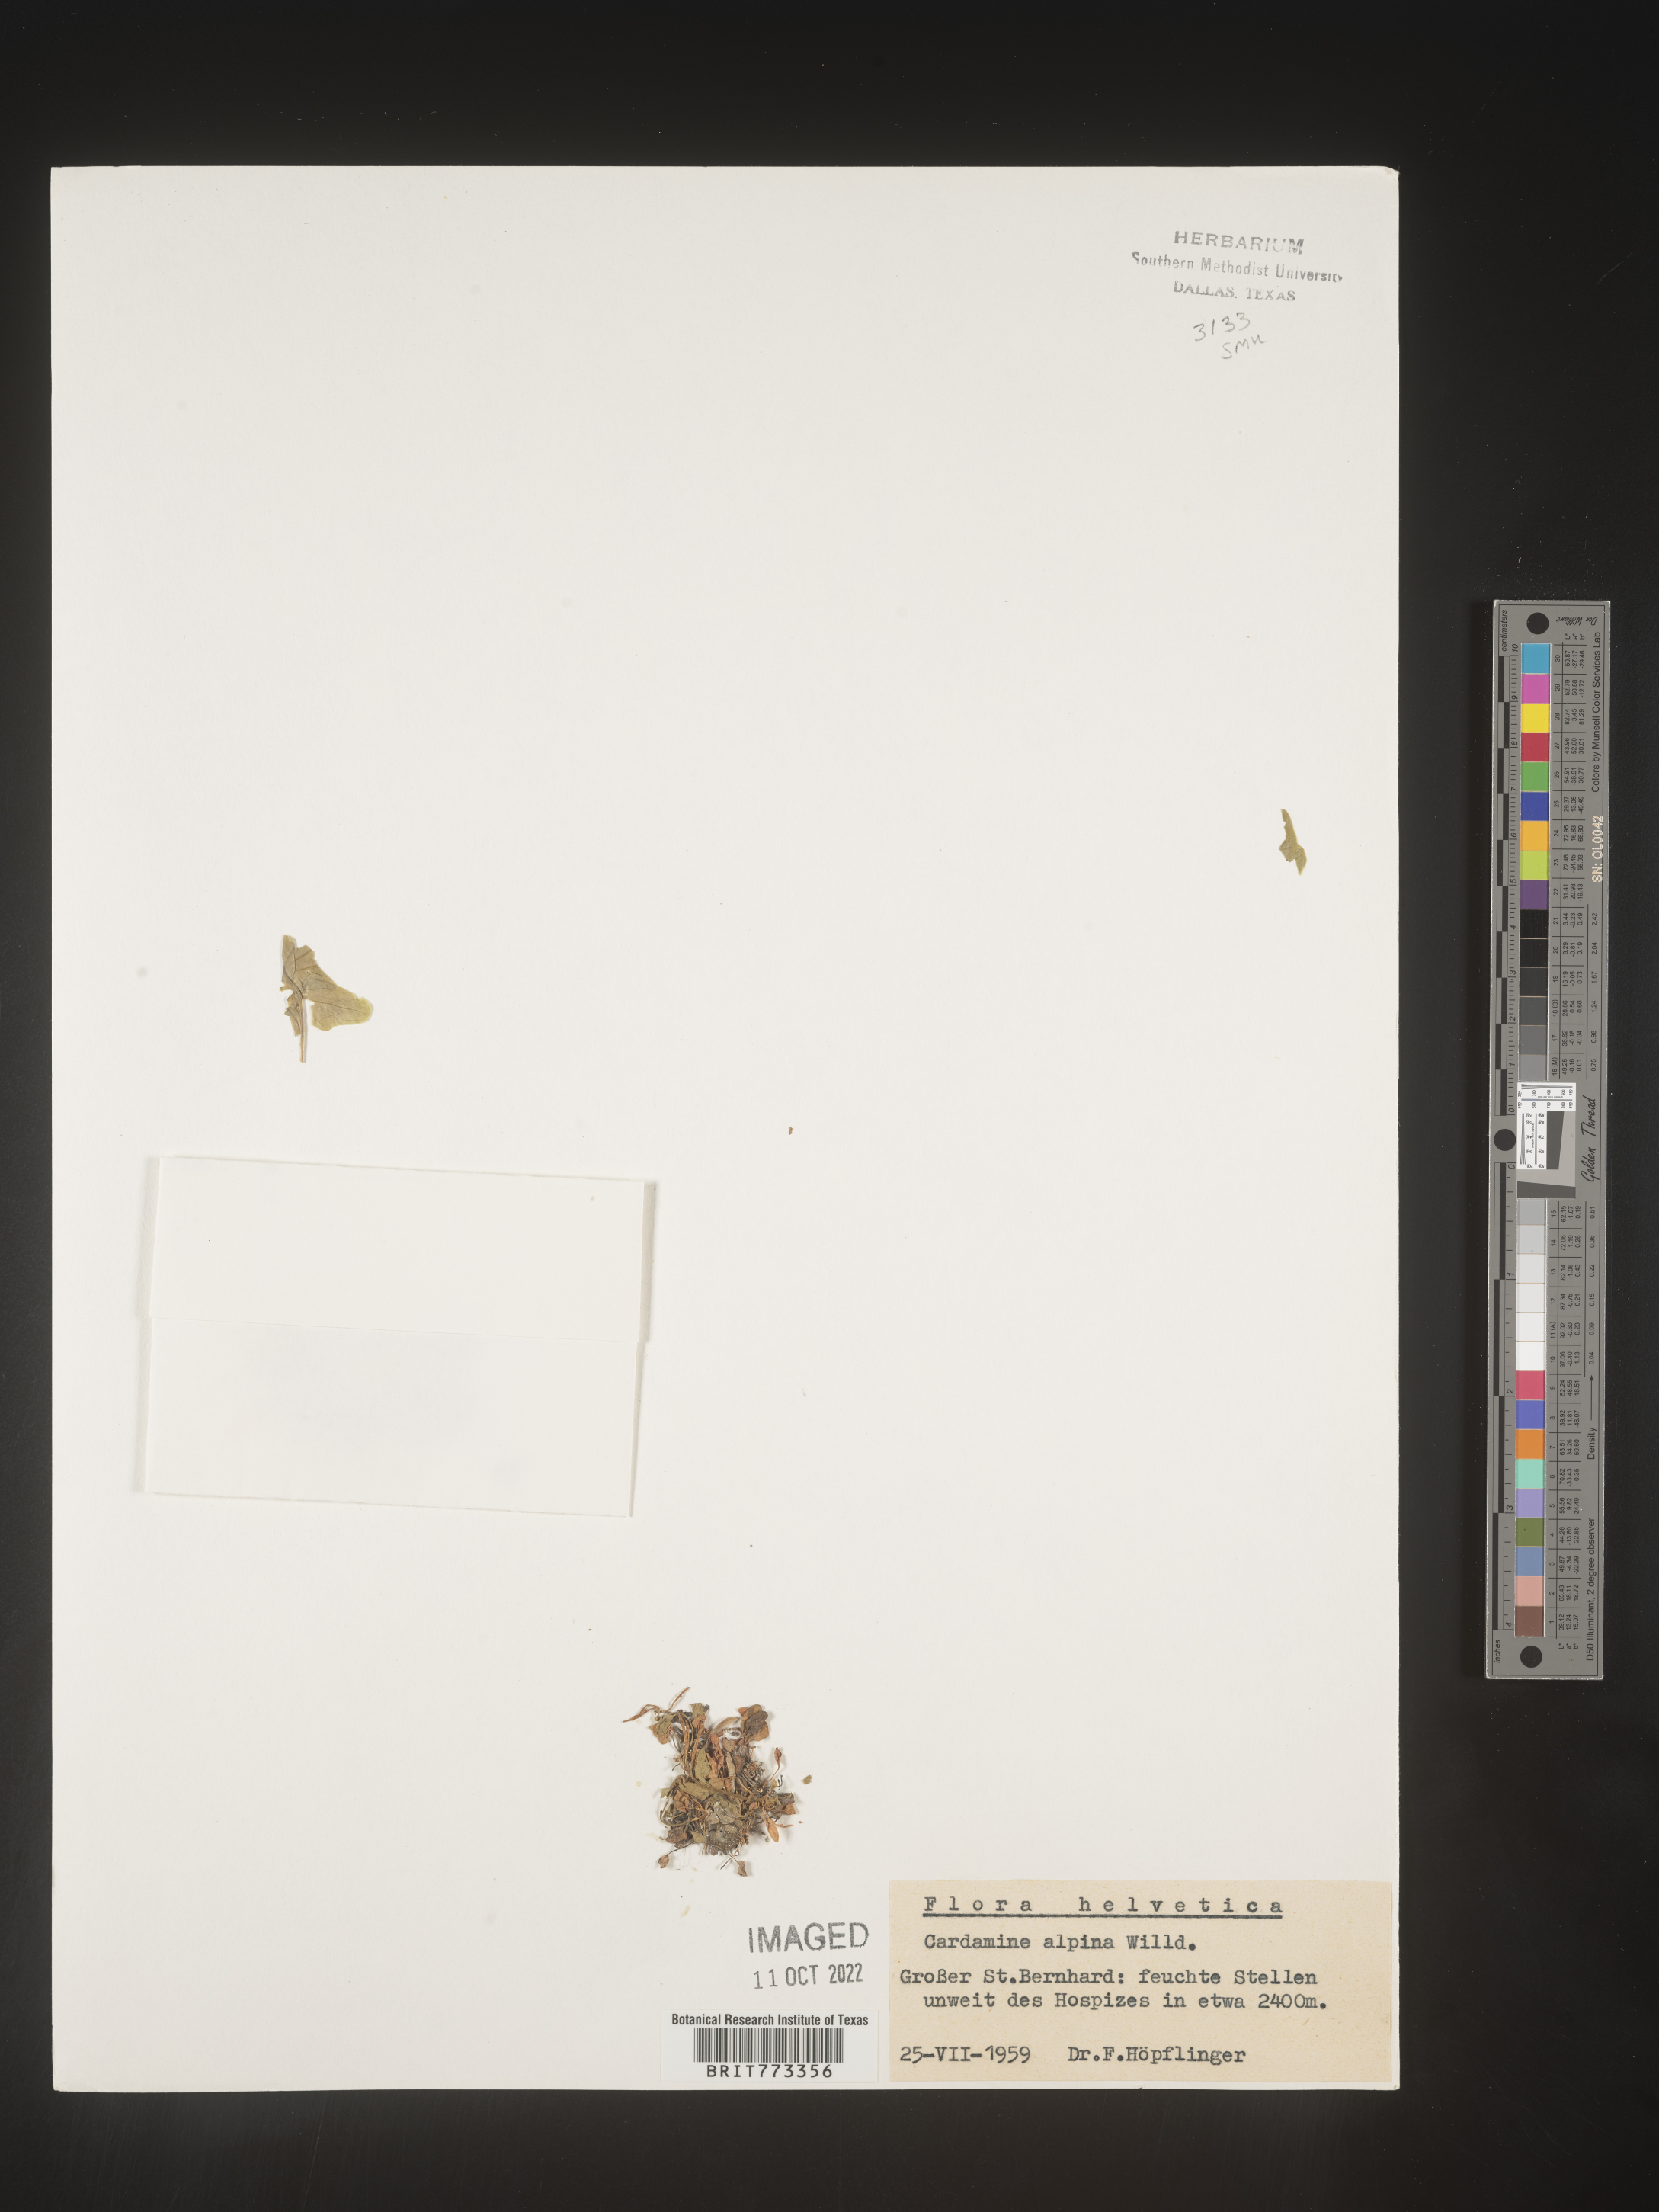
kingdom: Plantae
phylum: Tracheophyta
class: Magnoliopsida
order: Brassicales
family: Brassicaceae
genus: Cardamine
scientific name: Cardamine
